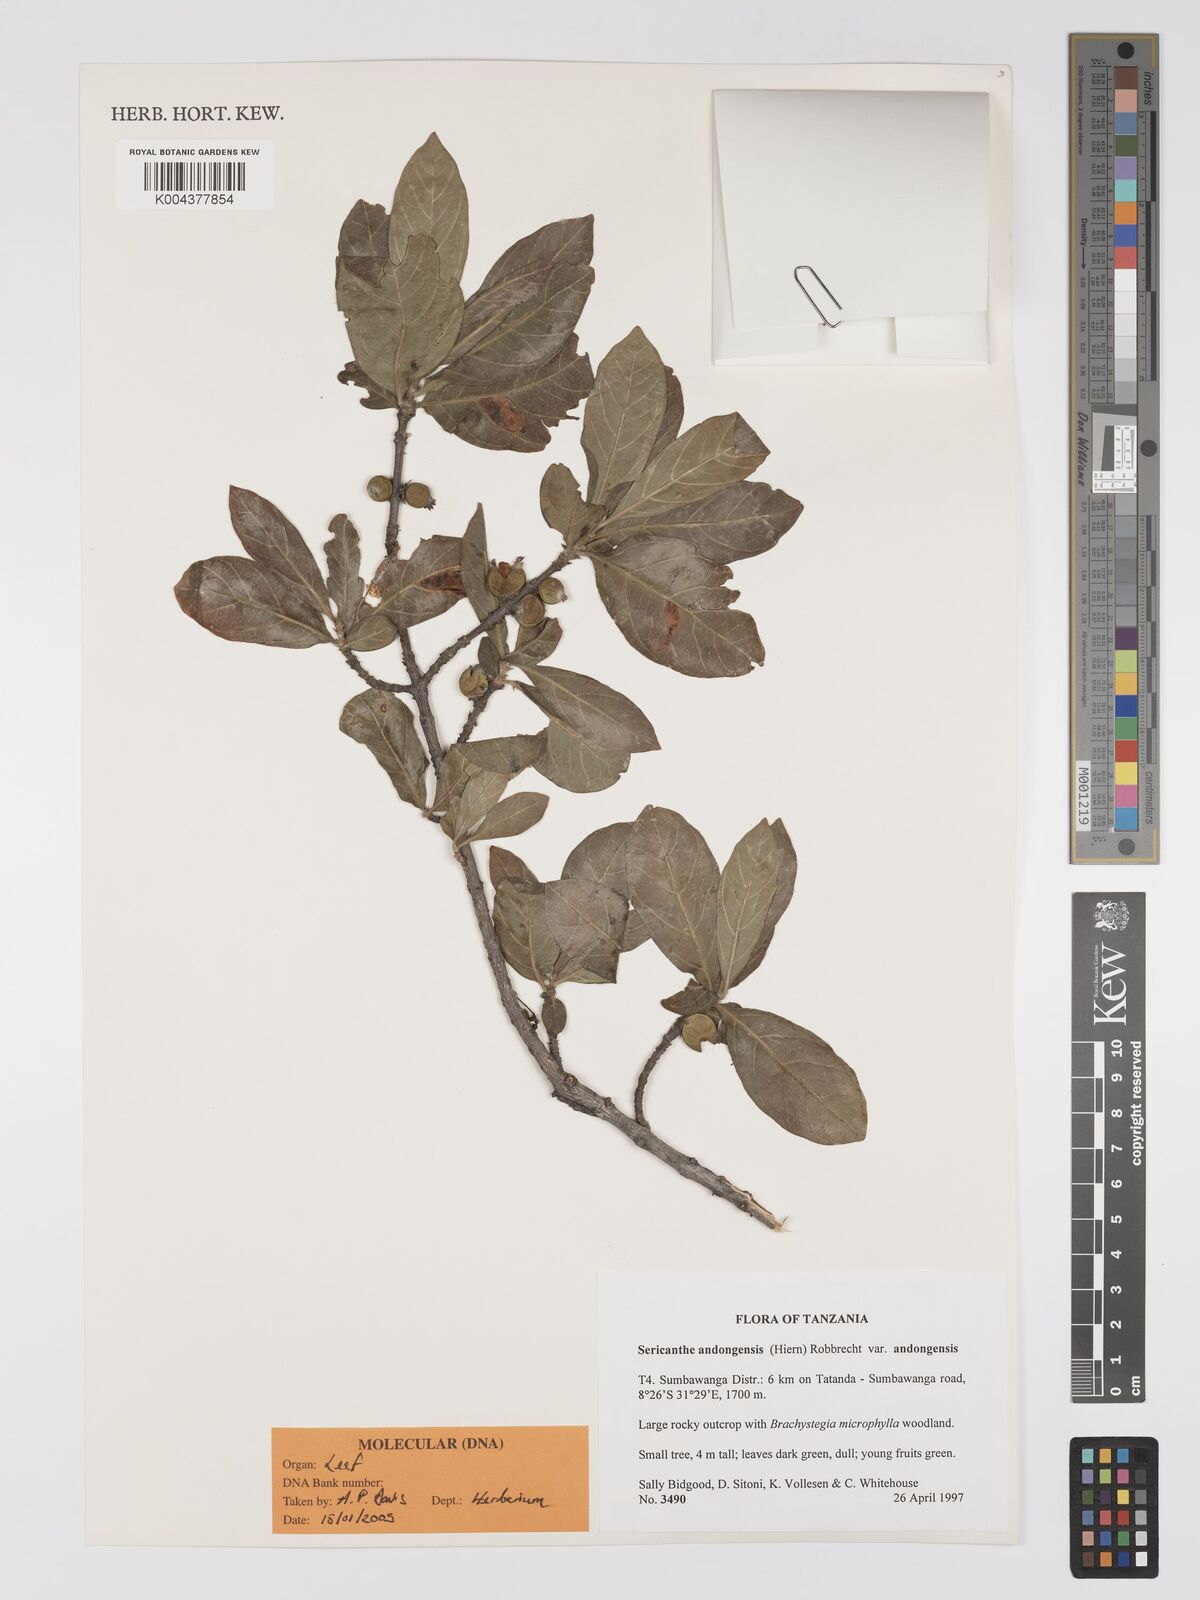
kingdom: Plantae
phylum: Tracheophyta
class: Magnoliopsida
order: Gentianales
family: Rubiaceae
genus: Sericanthe
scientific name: Sericanthe andongensis
